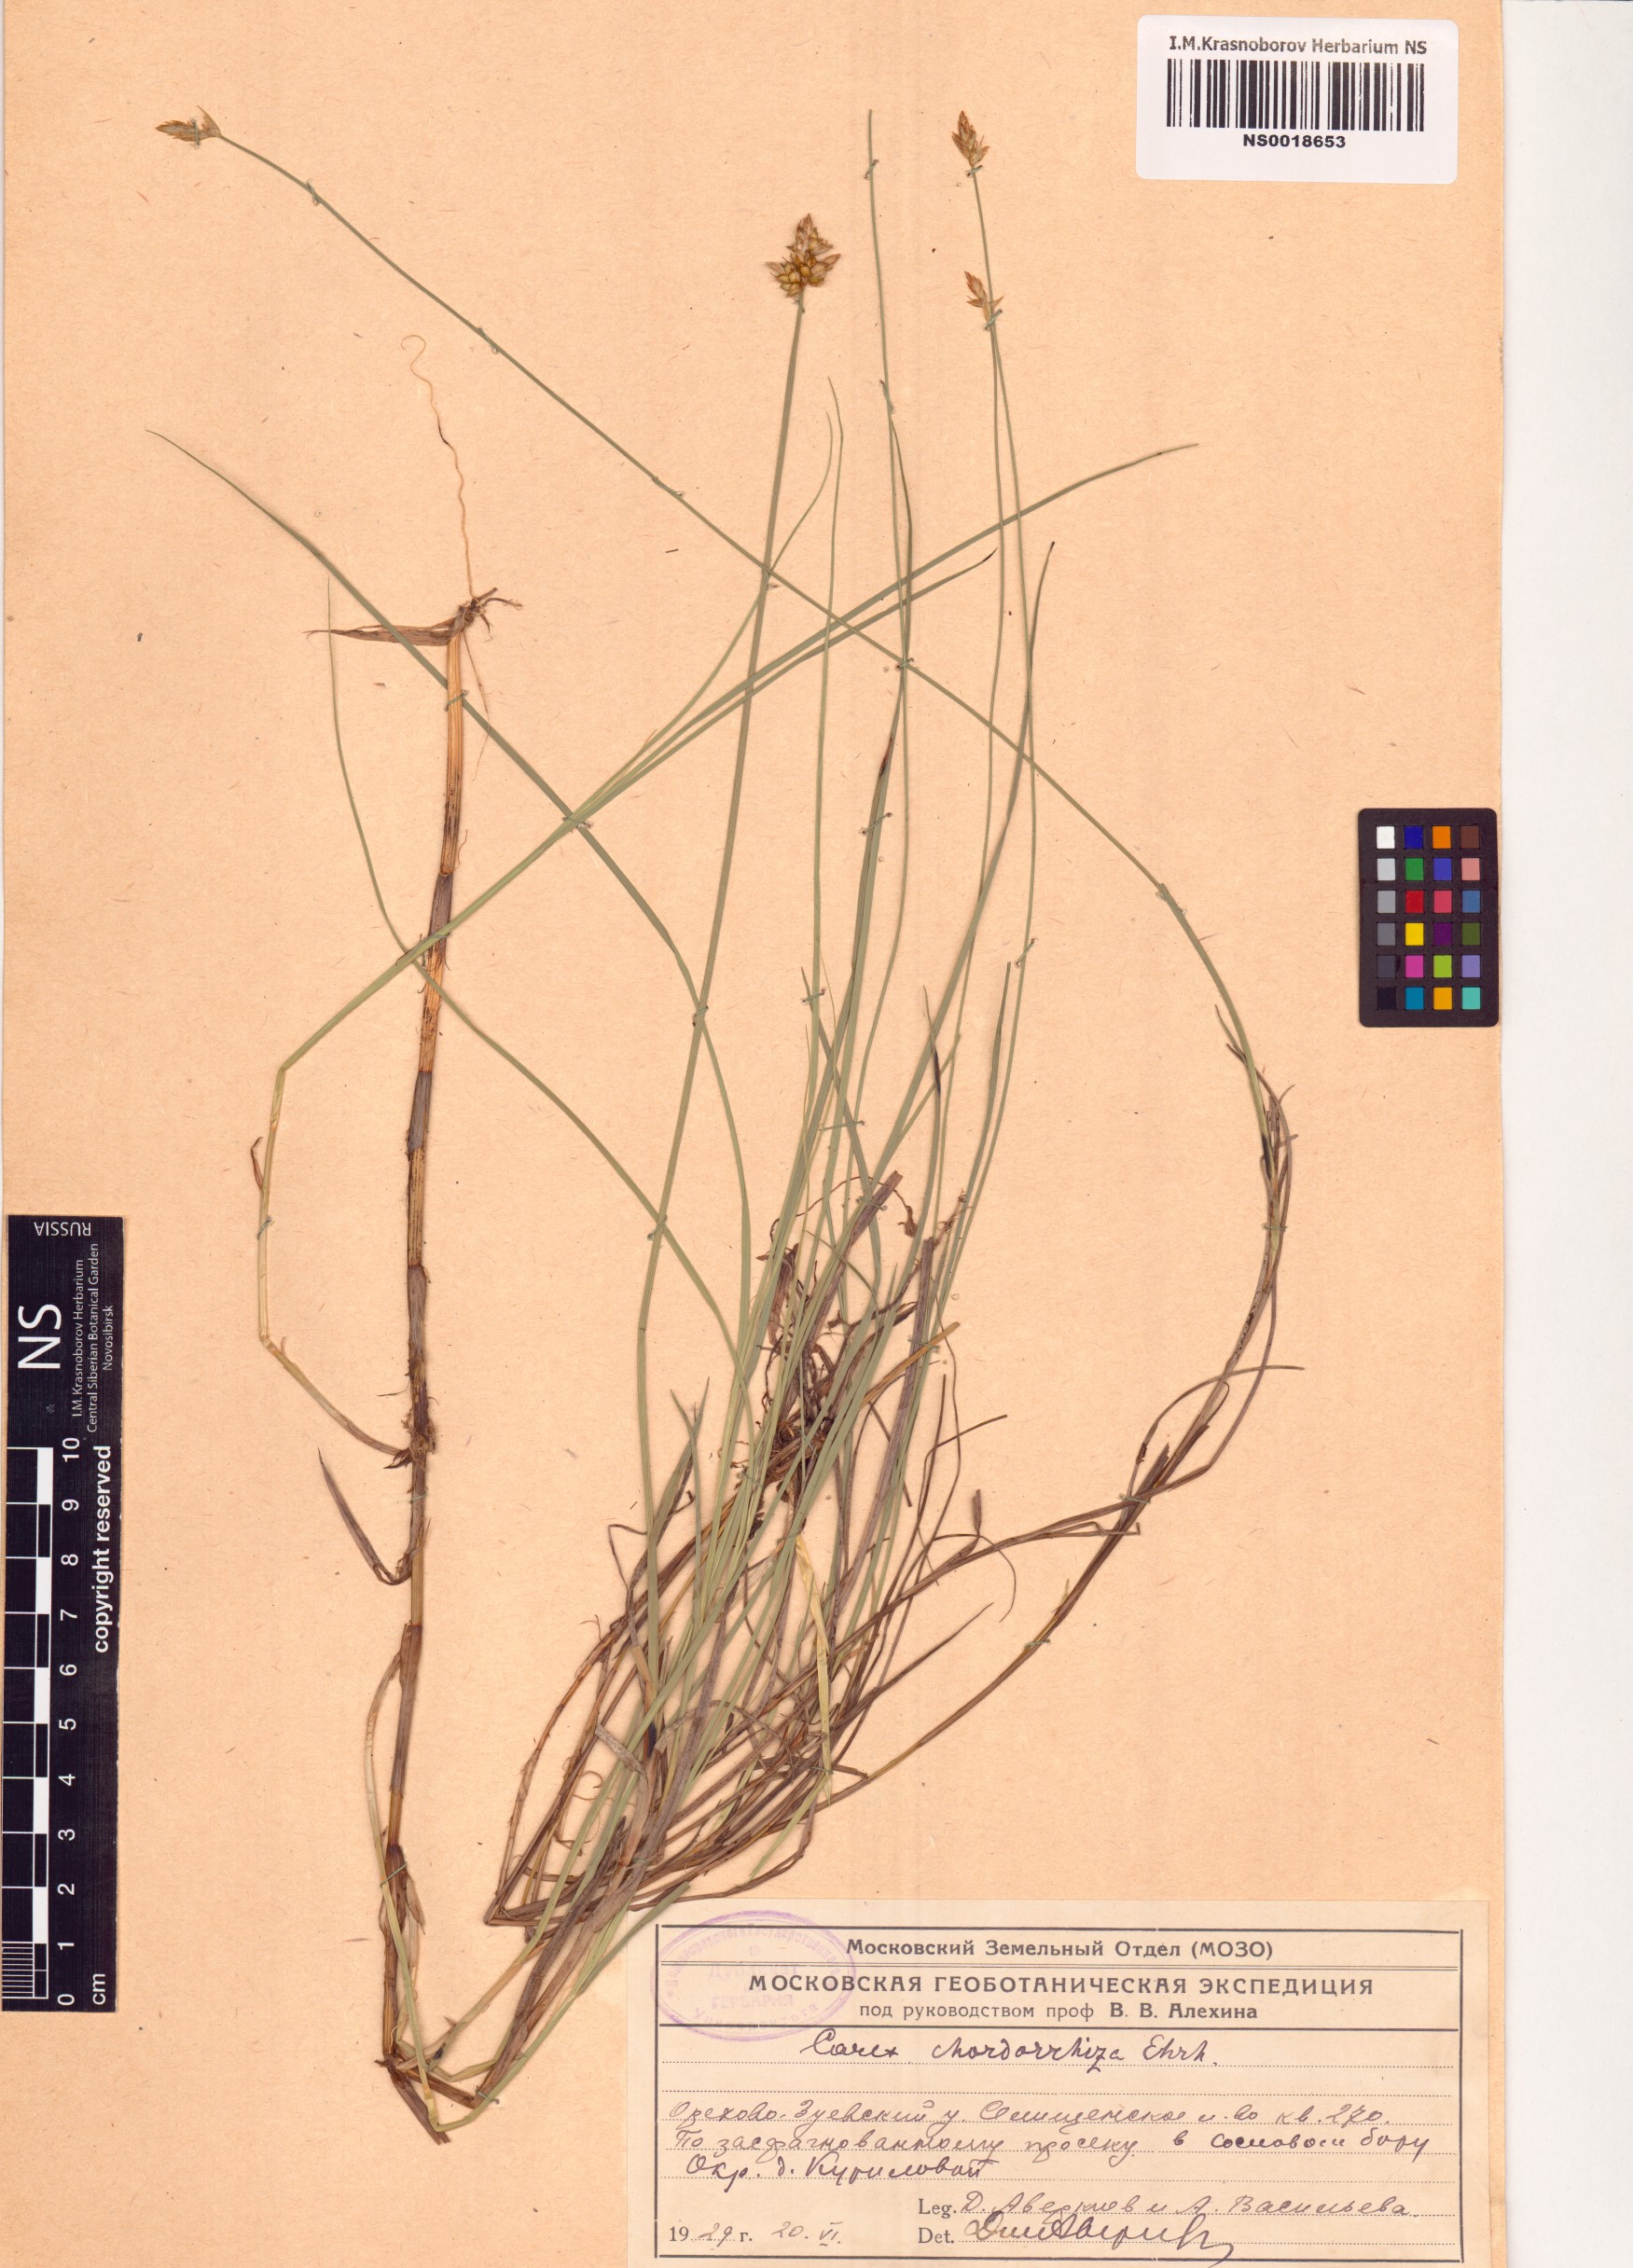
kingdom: Plantae
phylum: Tracheophyta
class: Liliopsida
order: Poales
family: Cyperaceae
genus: Carex
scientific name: Carex chordorrhiza
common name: String sedge
